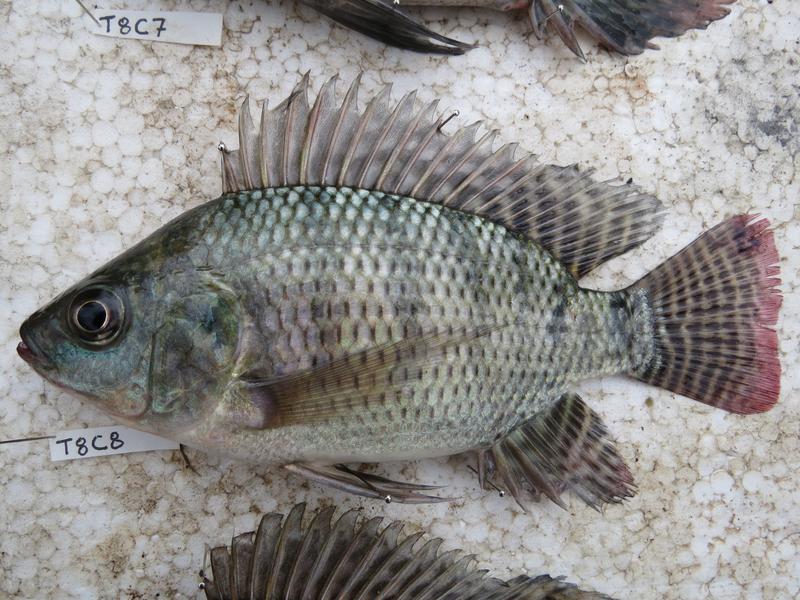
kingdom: Animalia
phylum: Chordata
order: Perciformes
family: Cichlidae
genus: Oreochromis
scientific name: Oreochromis niloticus
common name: Nile tilapia
